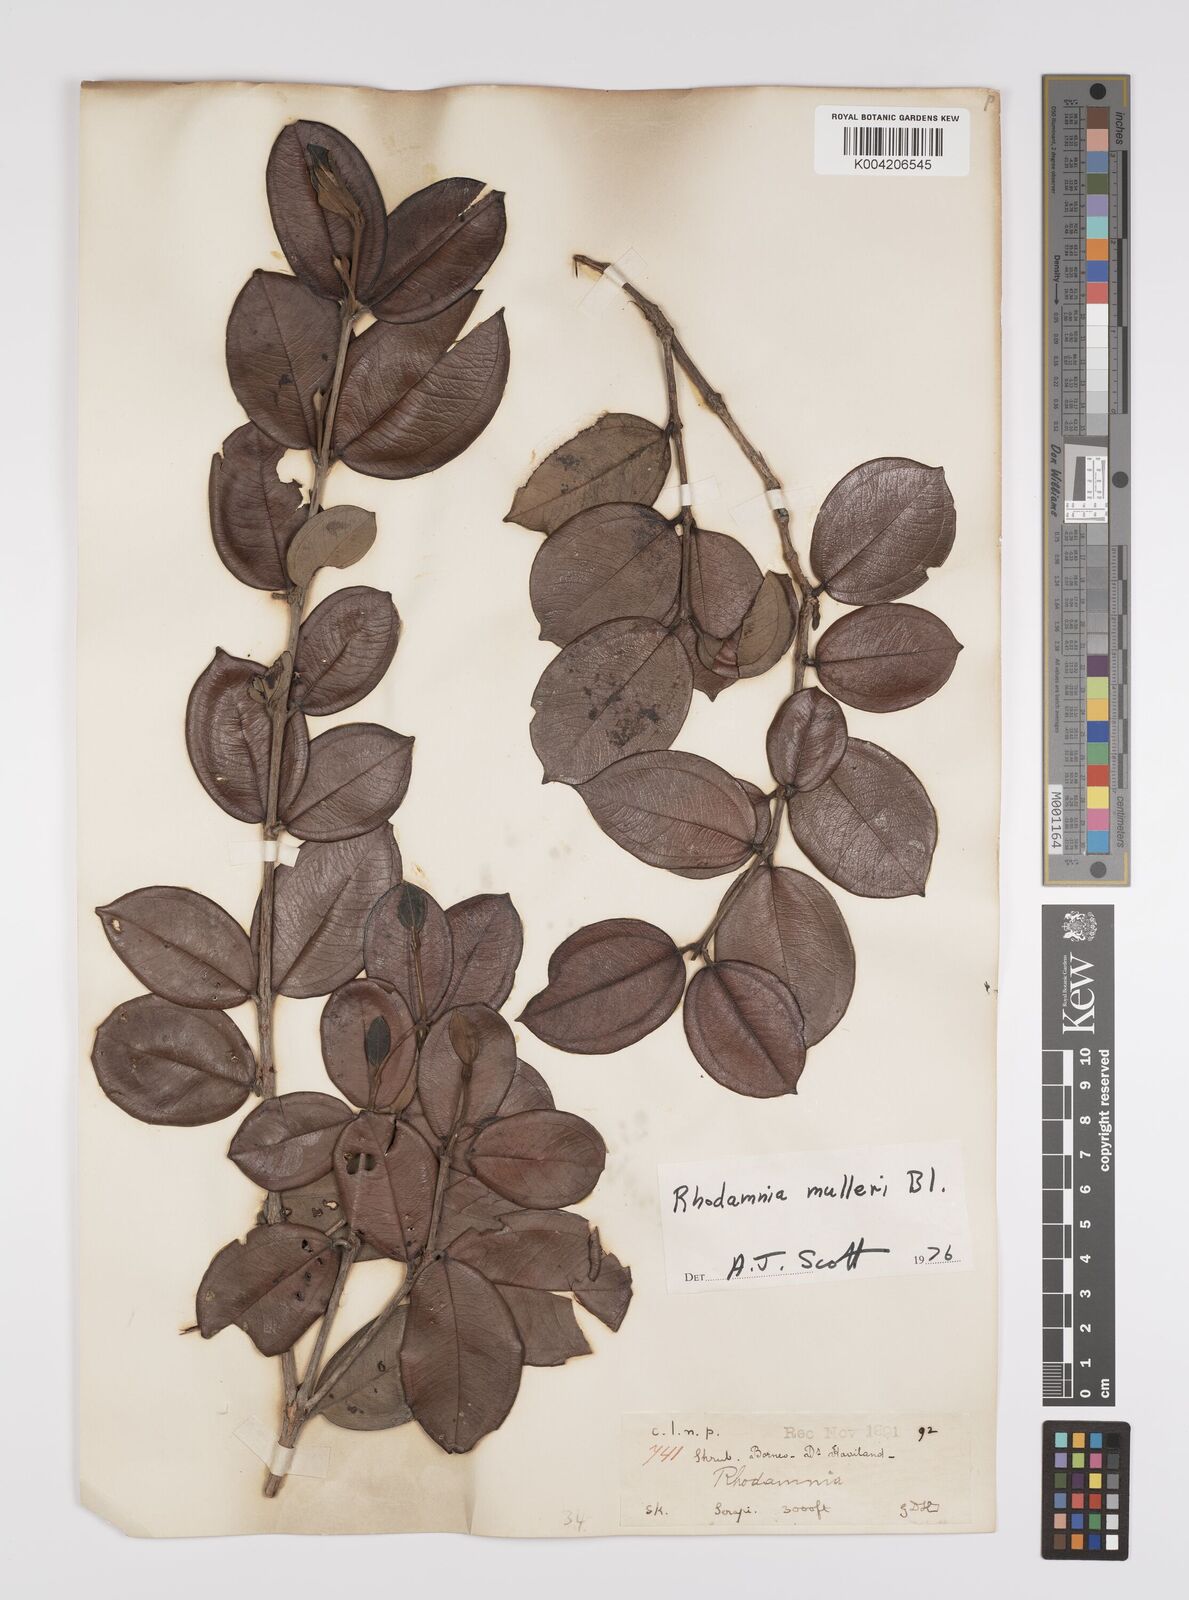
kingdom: Plantae
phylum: Tracheophyta
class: Magnoliopsida
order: Myrtales
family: Myrtaceae
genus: Rhodamnia
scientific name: Rhodamnia mulleri
